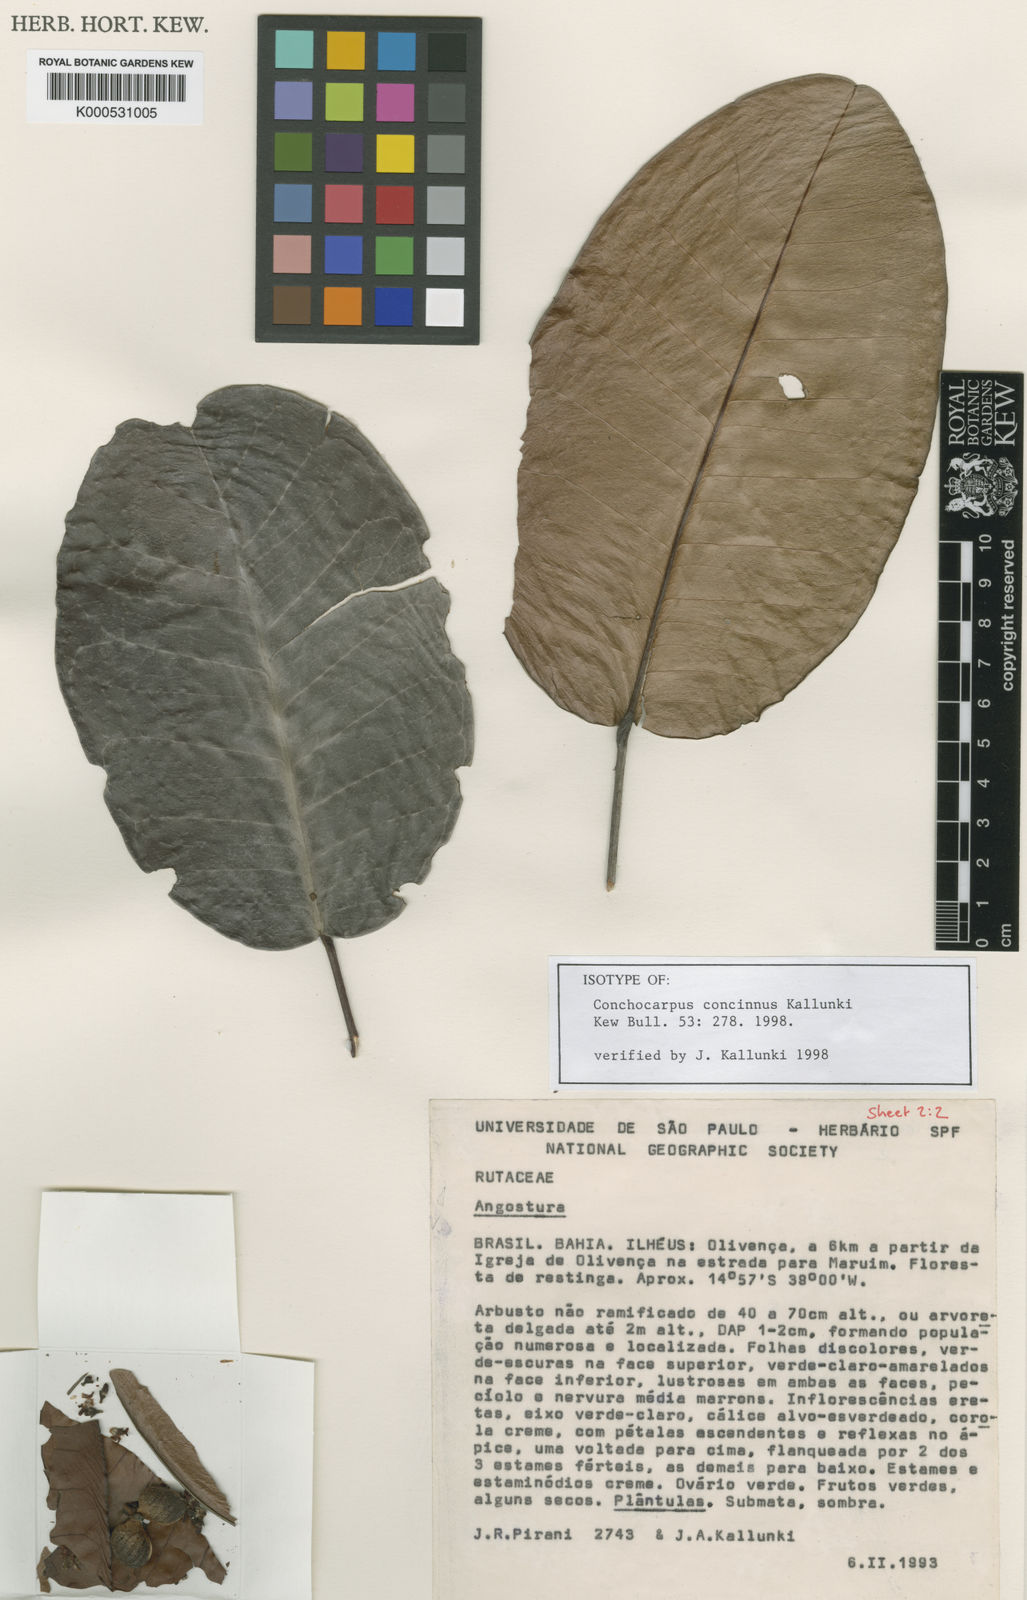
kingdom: Plantae
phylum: Tracheophyta
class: Magnoliopsida
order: Sapindales
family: Rutaceae
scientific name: Rutaceae
